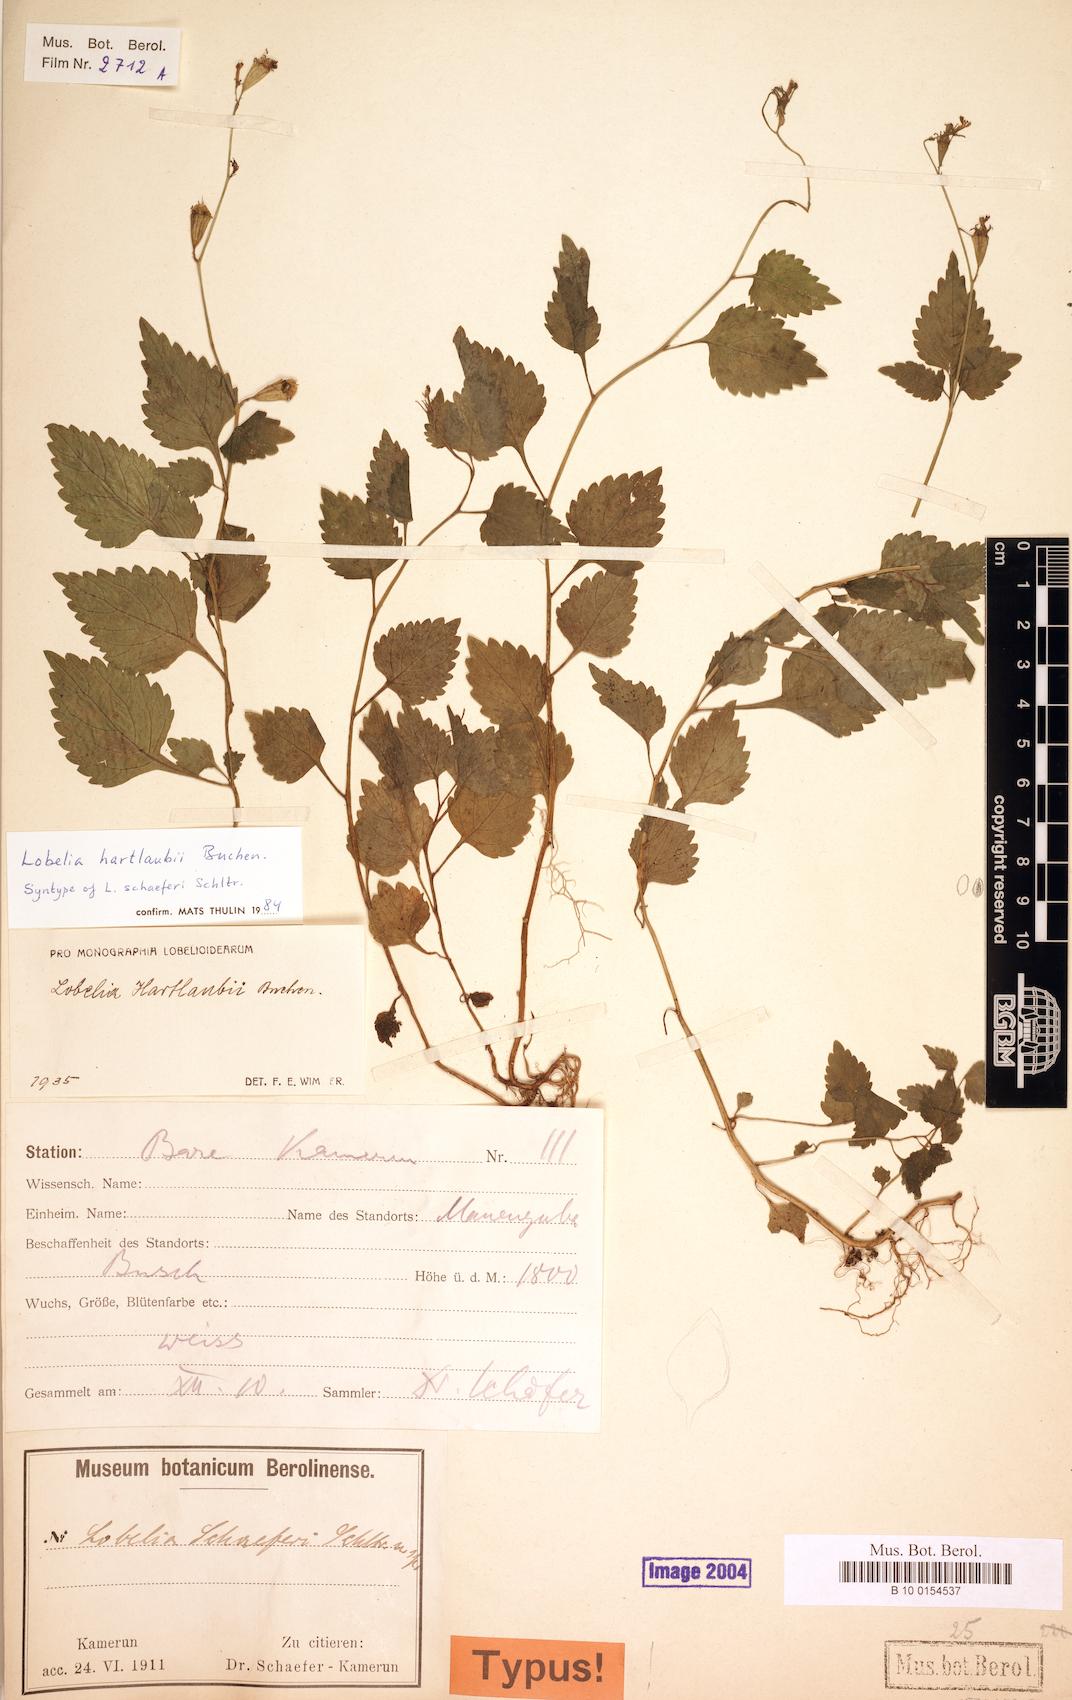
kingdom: Plantae
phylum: Tracheophyta
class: Magnoliopsida
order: Asterales
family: Campanulaceae
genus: Lobelia
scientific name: Lobelia hartlaubii
